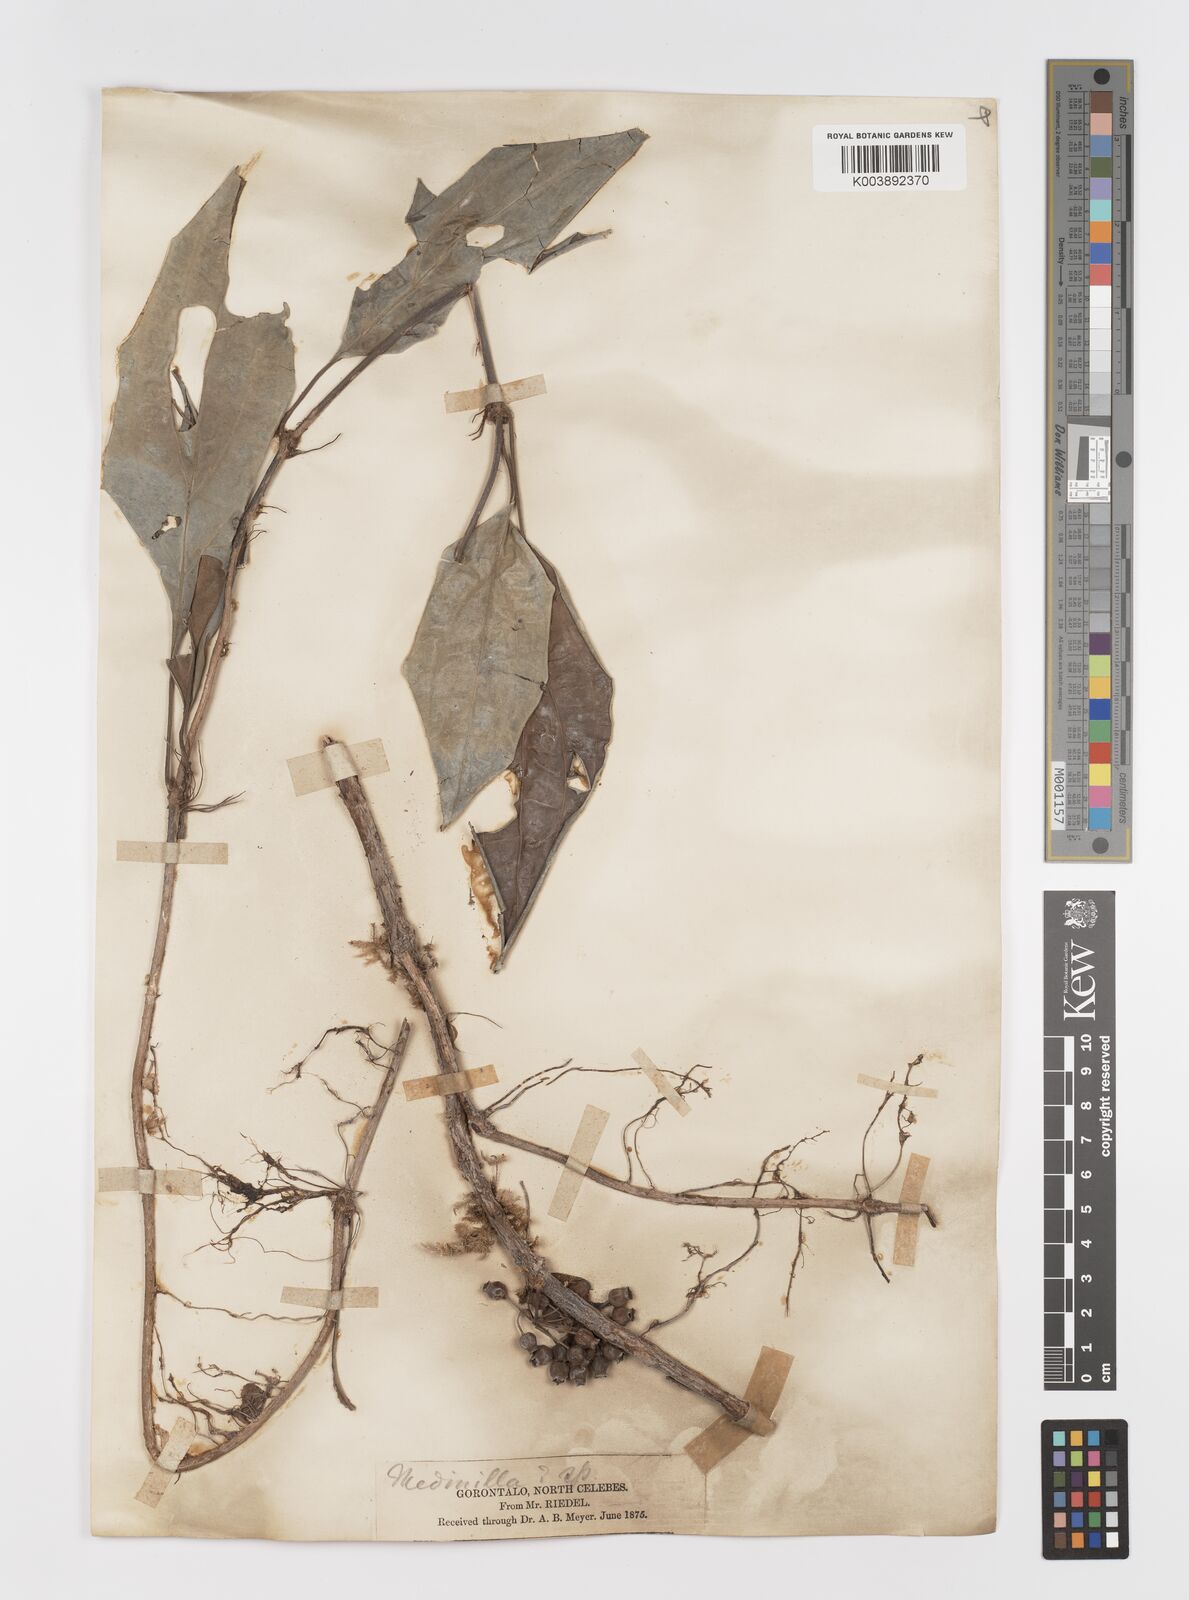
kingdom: Plantae
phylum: Tracheophyta
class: Magnoliopsida
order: Myrtales
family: Melastomataceae
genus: Medinilla
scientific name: Medinilla
